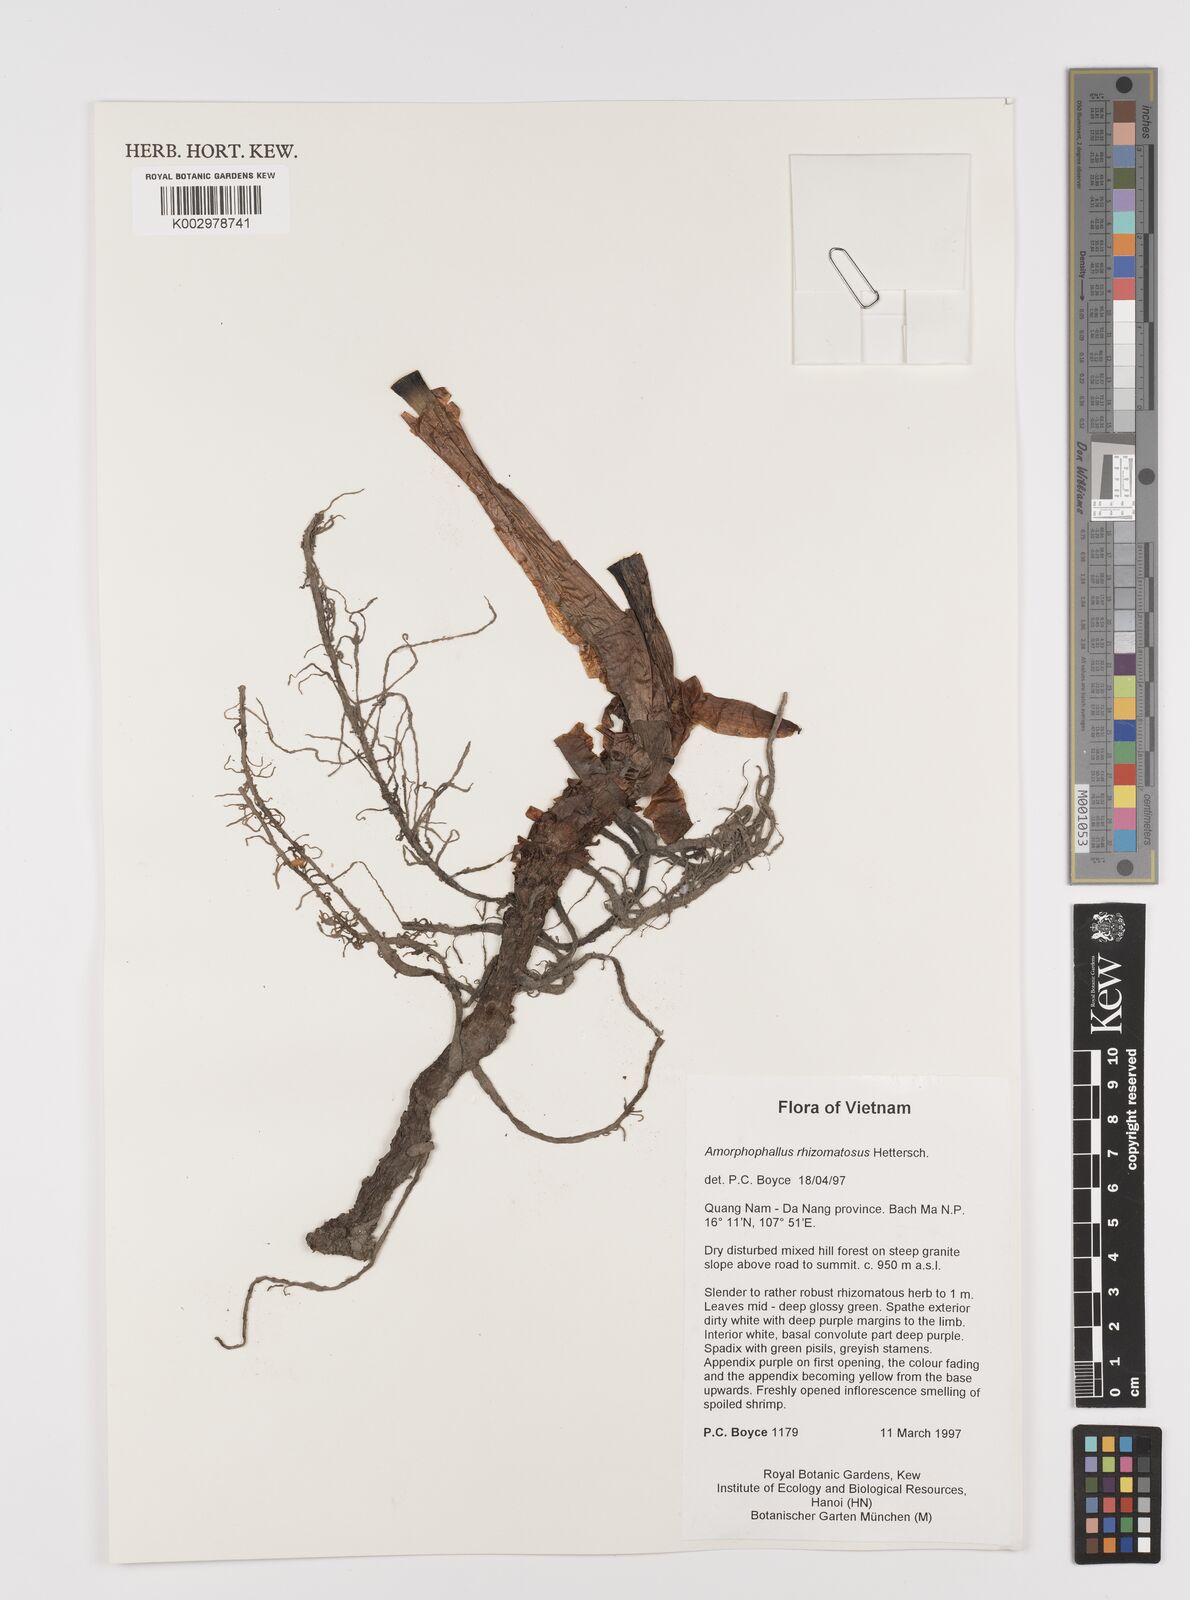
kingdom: Plantae
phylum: Tracheophyta
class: Liliopsida
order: Alismatales
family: Araceae
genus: Amorphophallus
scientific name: Amorphophallus rhizomatosus
